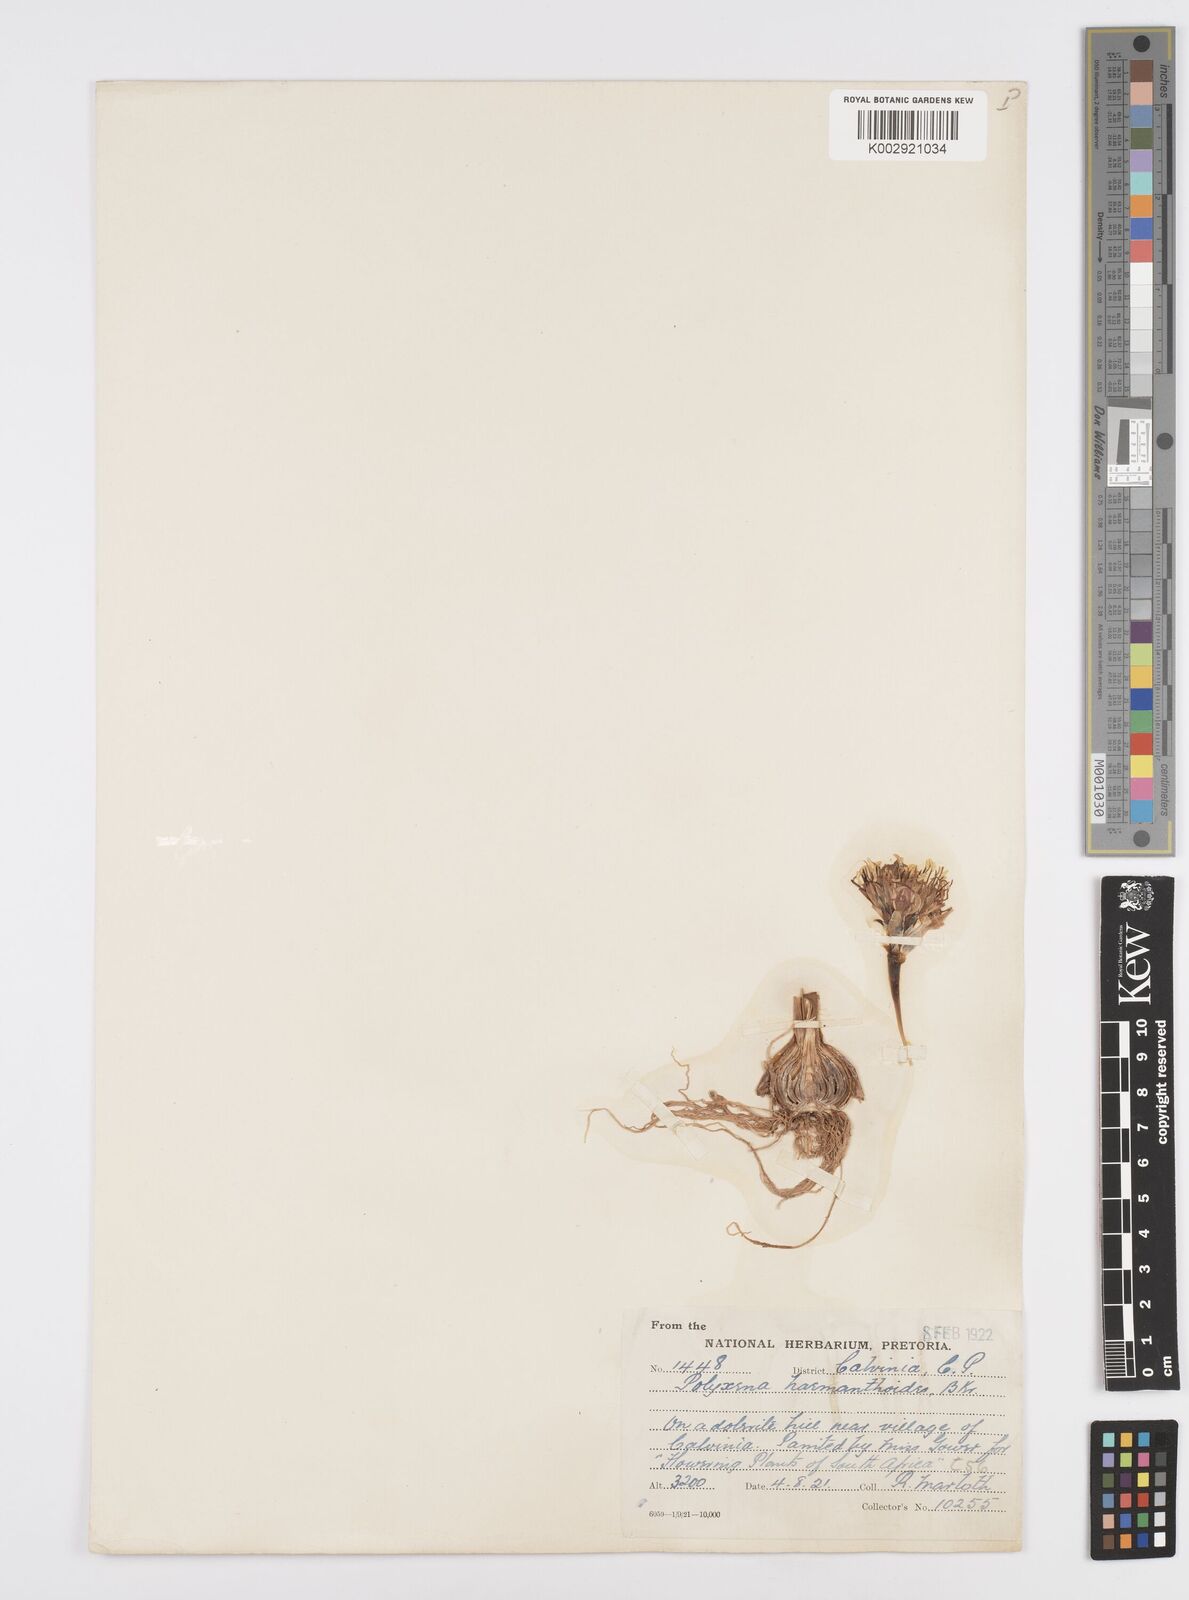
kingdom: Plantae
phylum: Tracheophyta
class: Liliopsida
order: Asparagales
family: Asparagaceae
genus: Massonia
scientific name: Massonia
